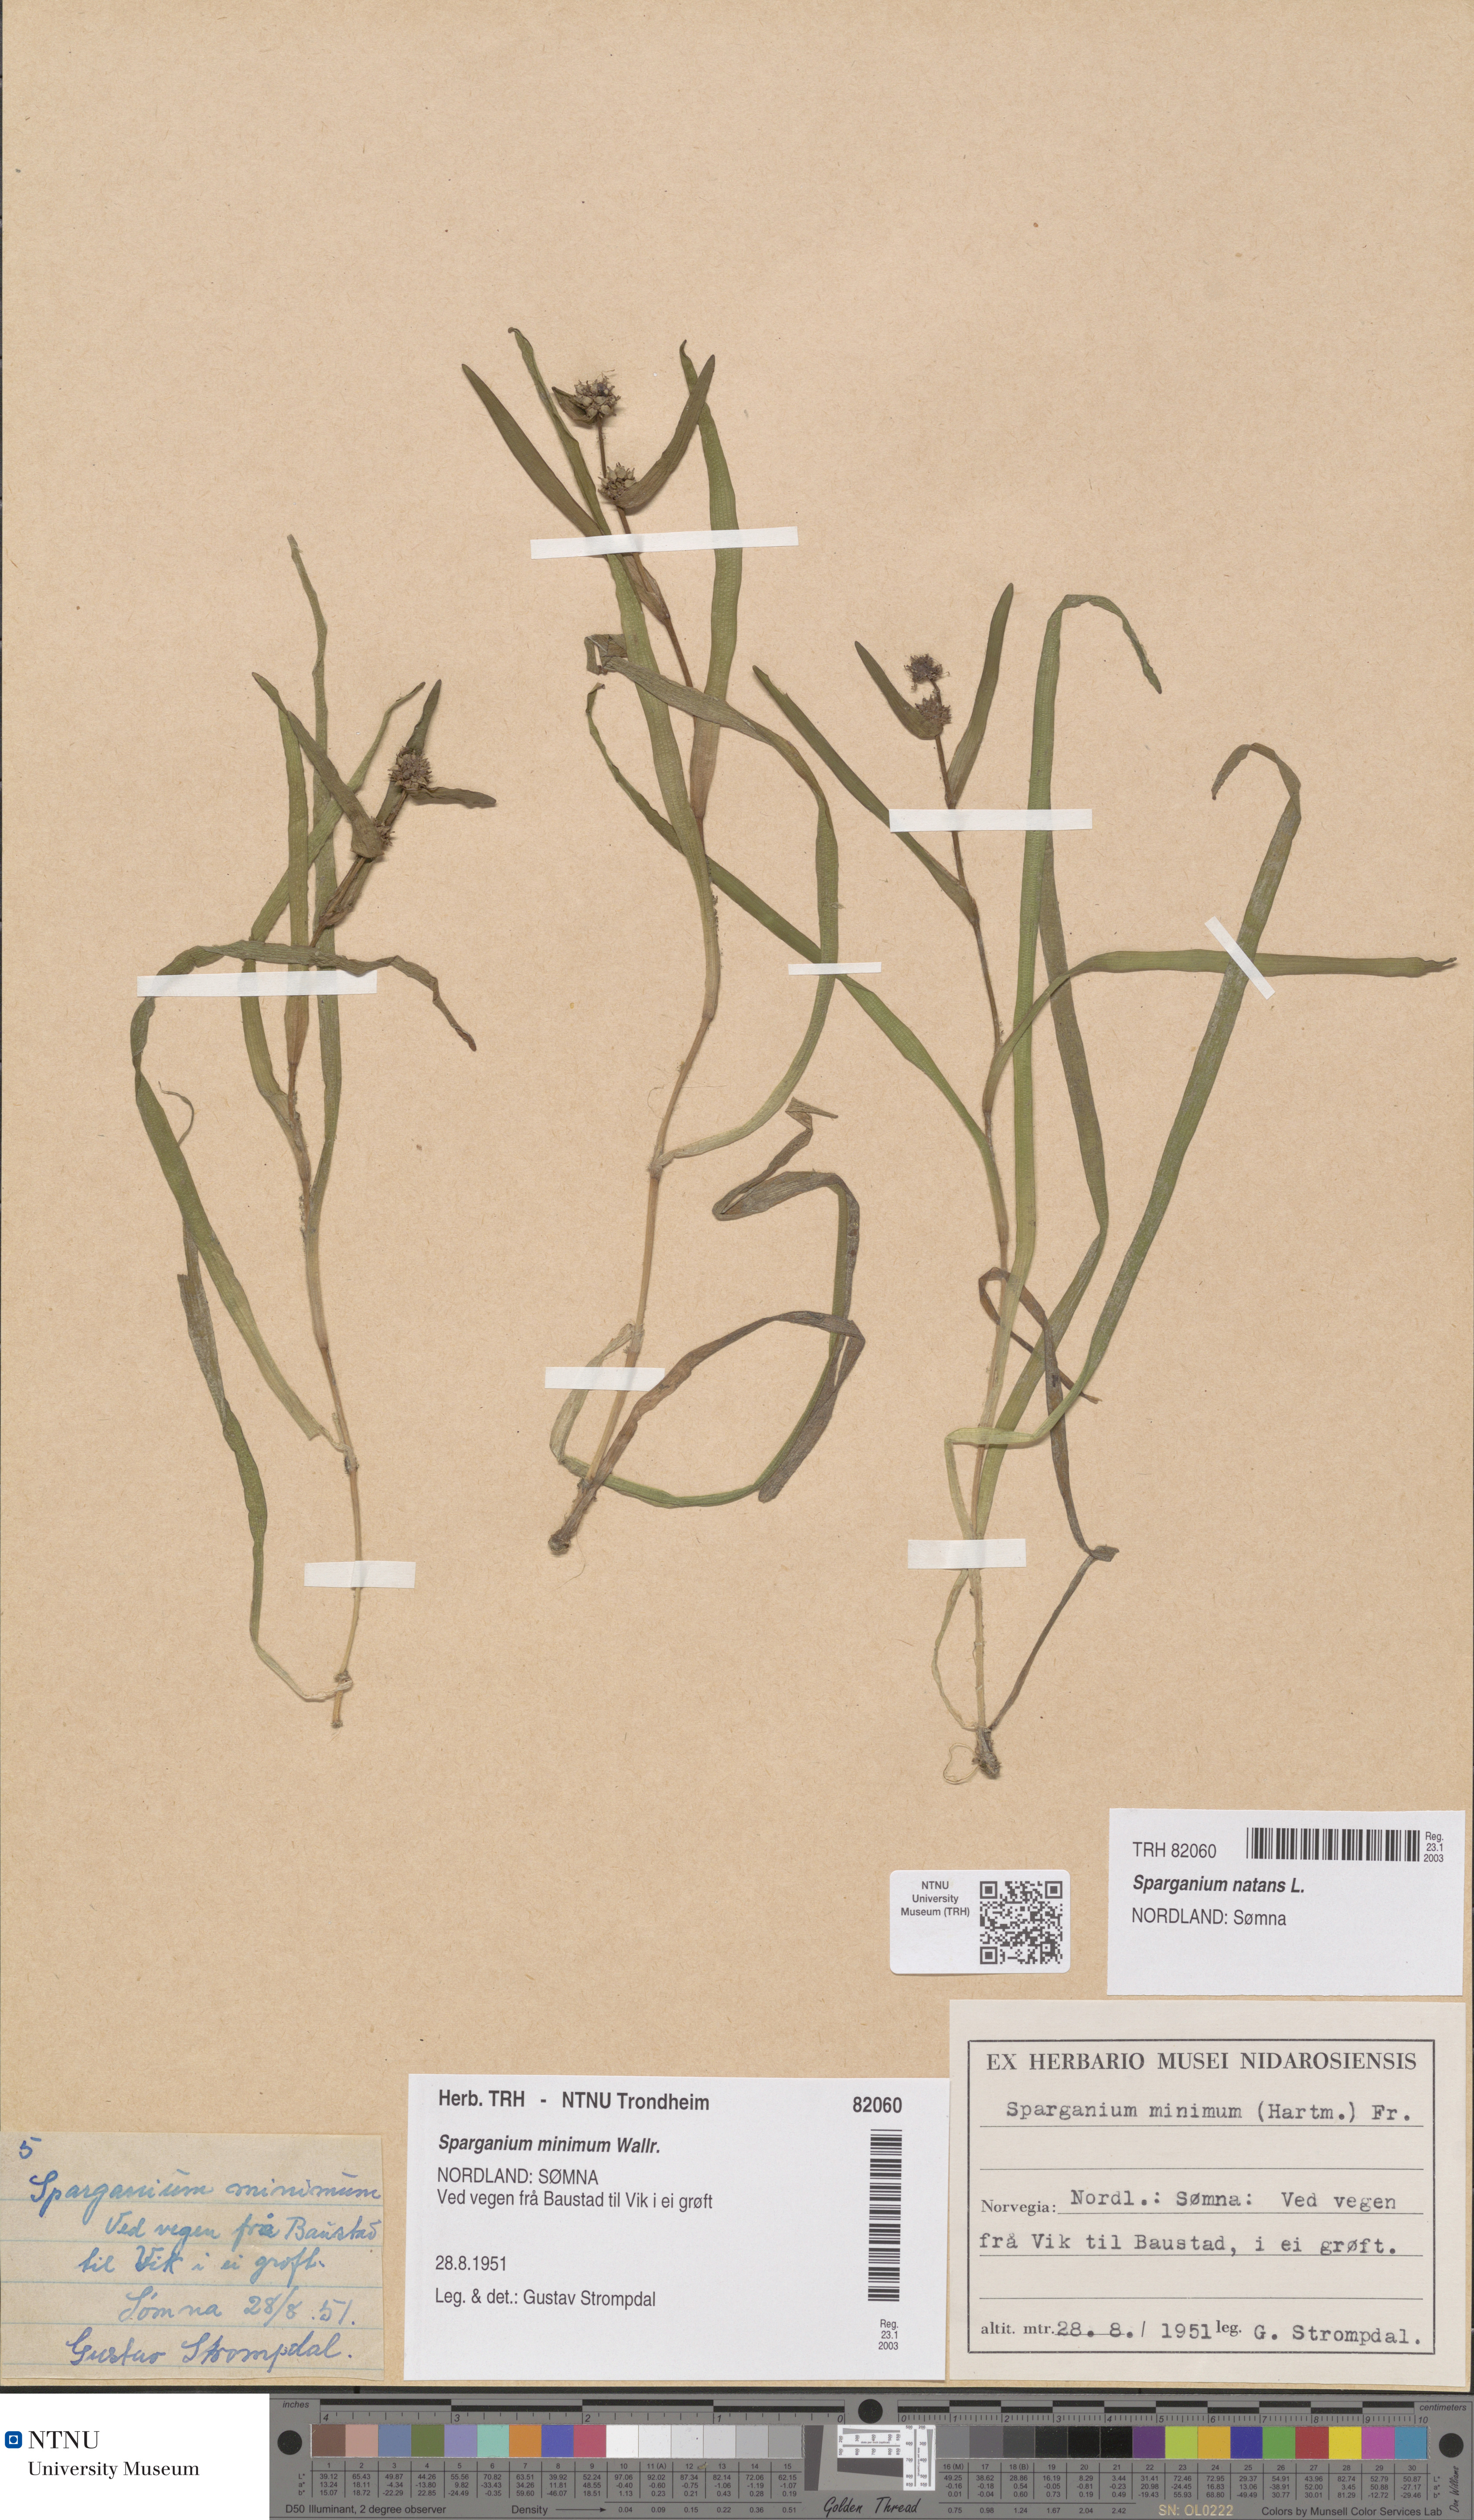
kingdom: Plantae
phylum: Tracheophyta
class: Liliopsida
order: Poales
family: Typhaceae
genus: Sparganium
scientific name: Sparganium natans
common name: Least bur-reed
